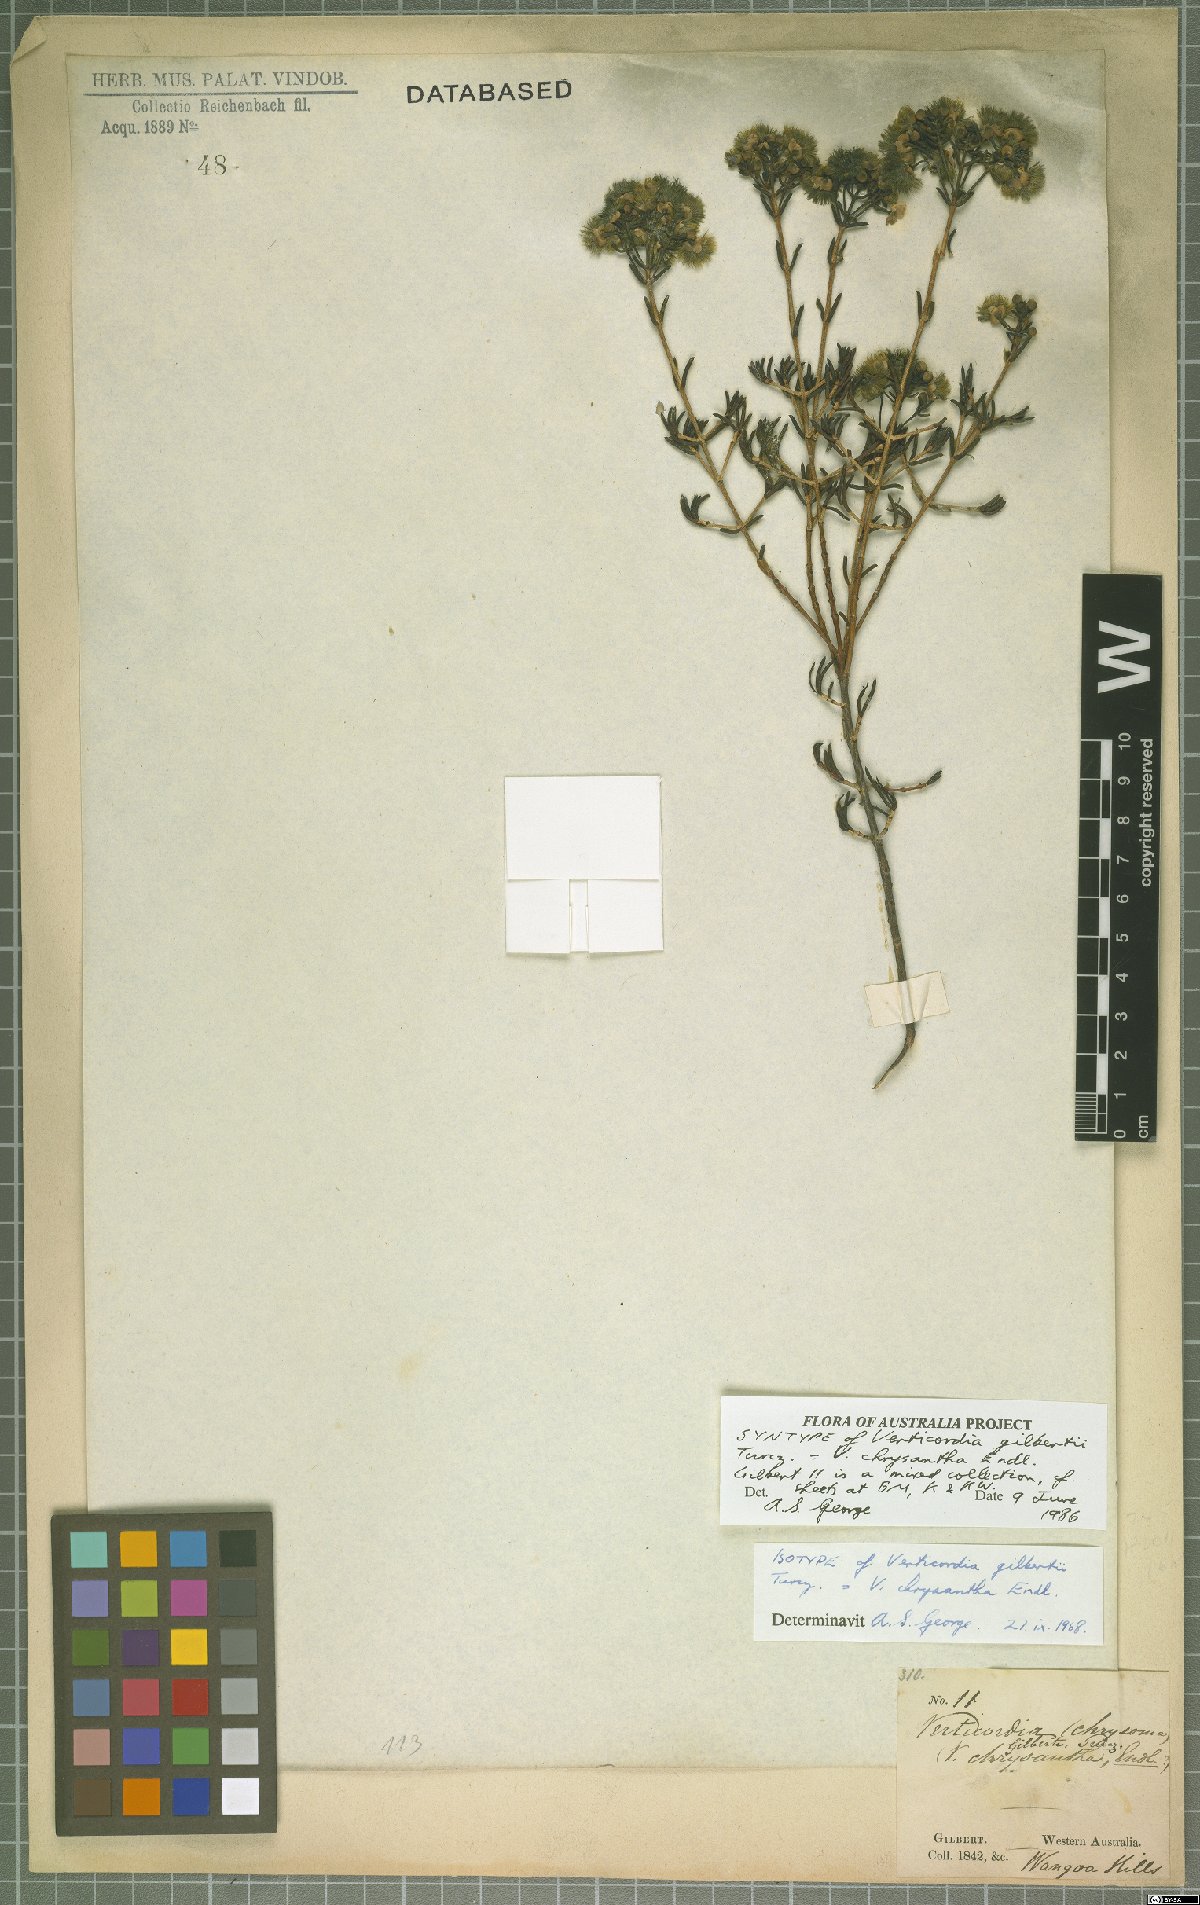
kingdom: Plantae
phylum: Tracheophyta
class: Magnoliopsida
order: Myrtales
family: Myrtaceae
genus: Verticordia
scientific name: Verticordia chrysantha
